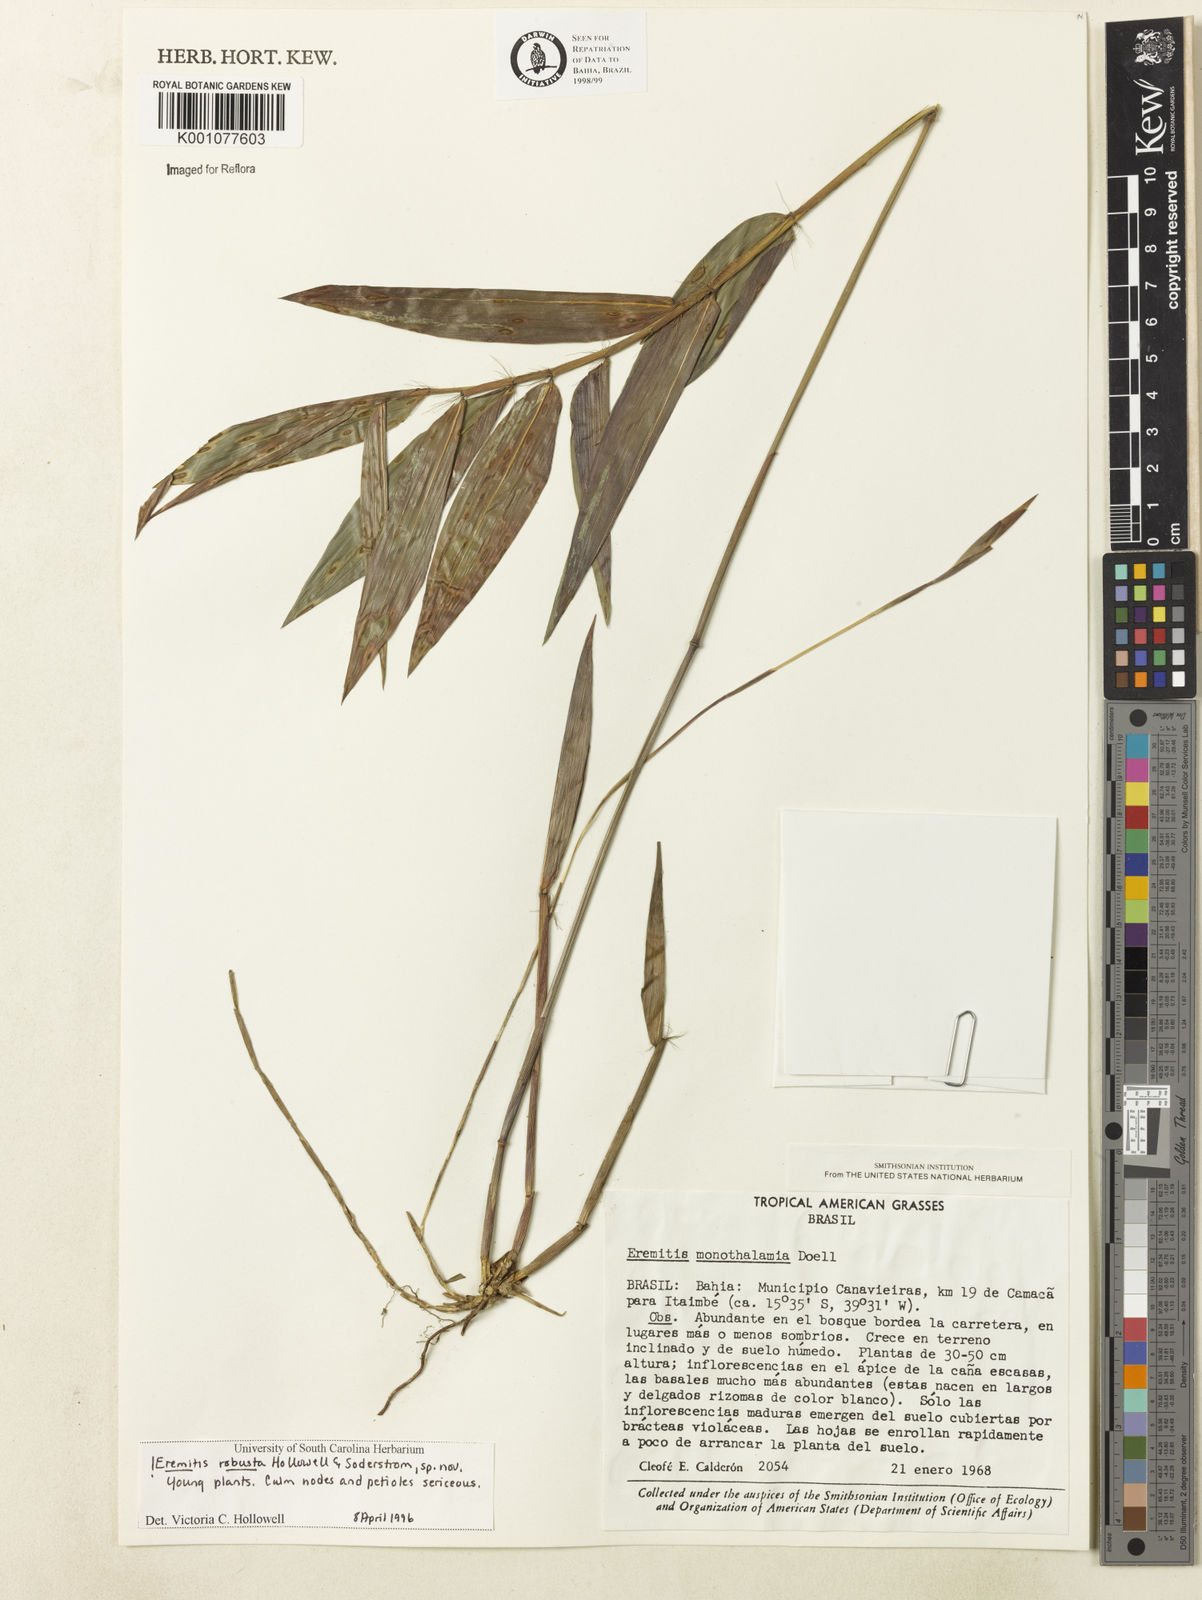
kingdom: Plantae
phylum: Tracheophyta
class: Liliopsida
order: Poales
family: Poaceae
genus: Eremitis
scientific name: Eremitis
